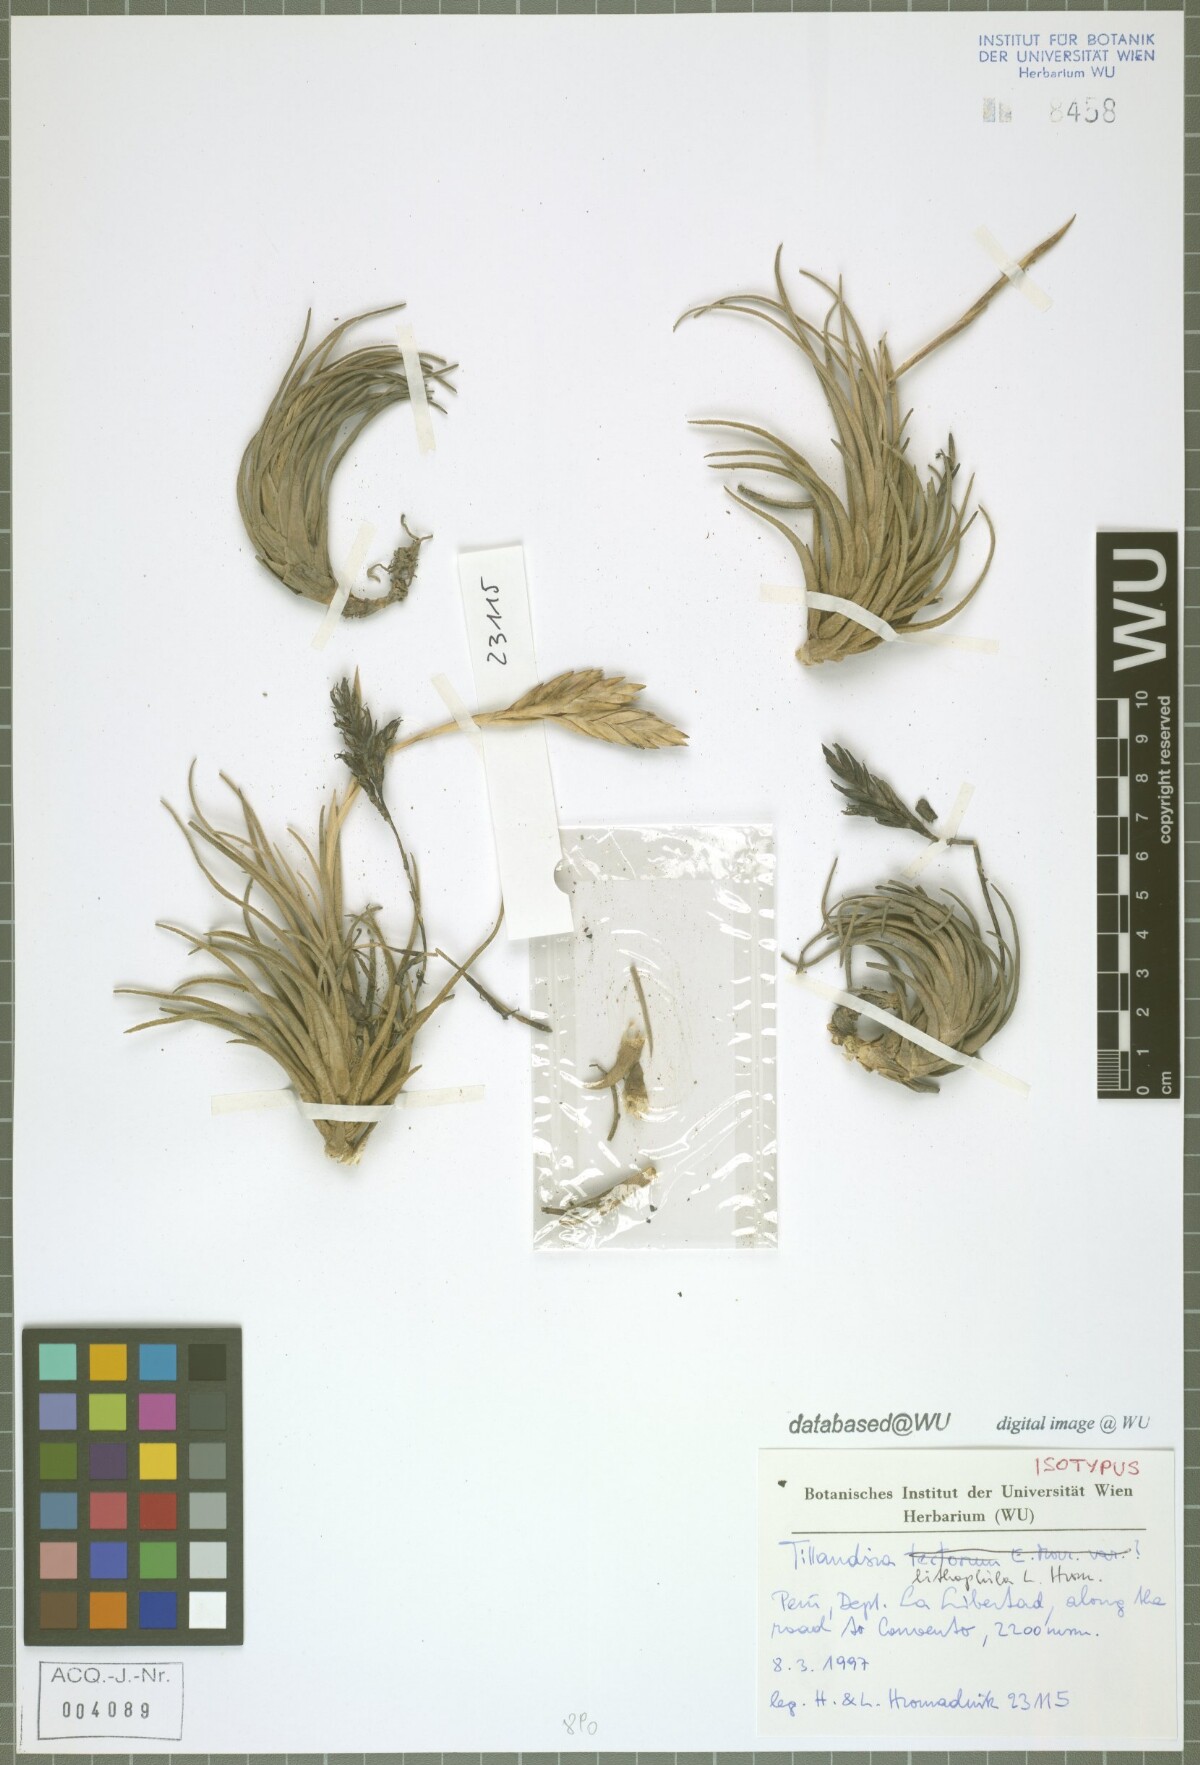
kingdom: Plantae
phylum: Tracheophyta
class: Liliopsida
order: Poales
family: Bromeliaceae
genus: Tillandsia
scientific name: Tillandsia lithophila
